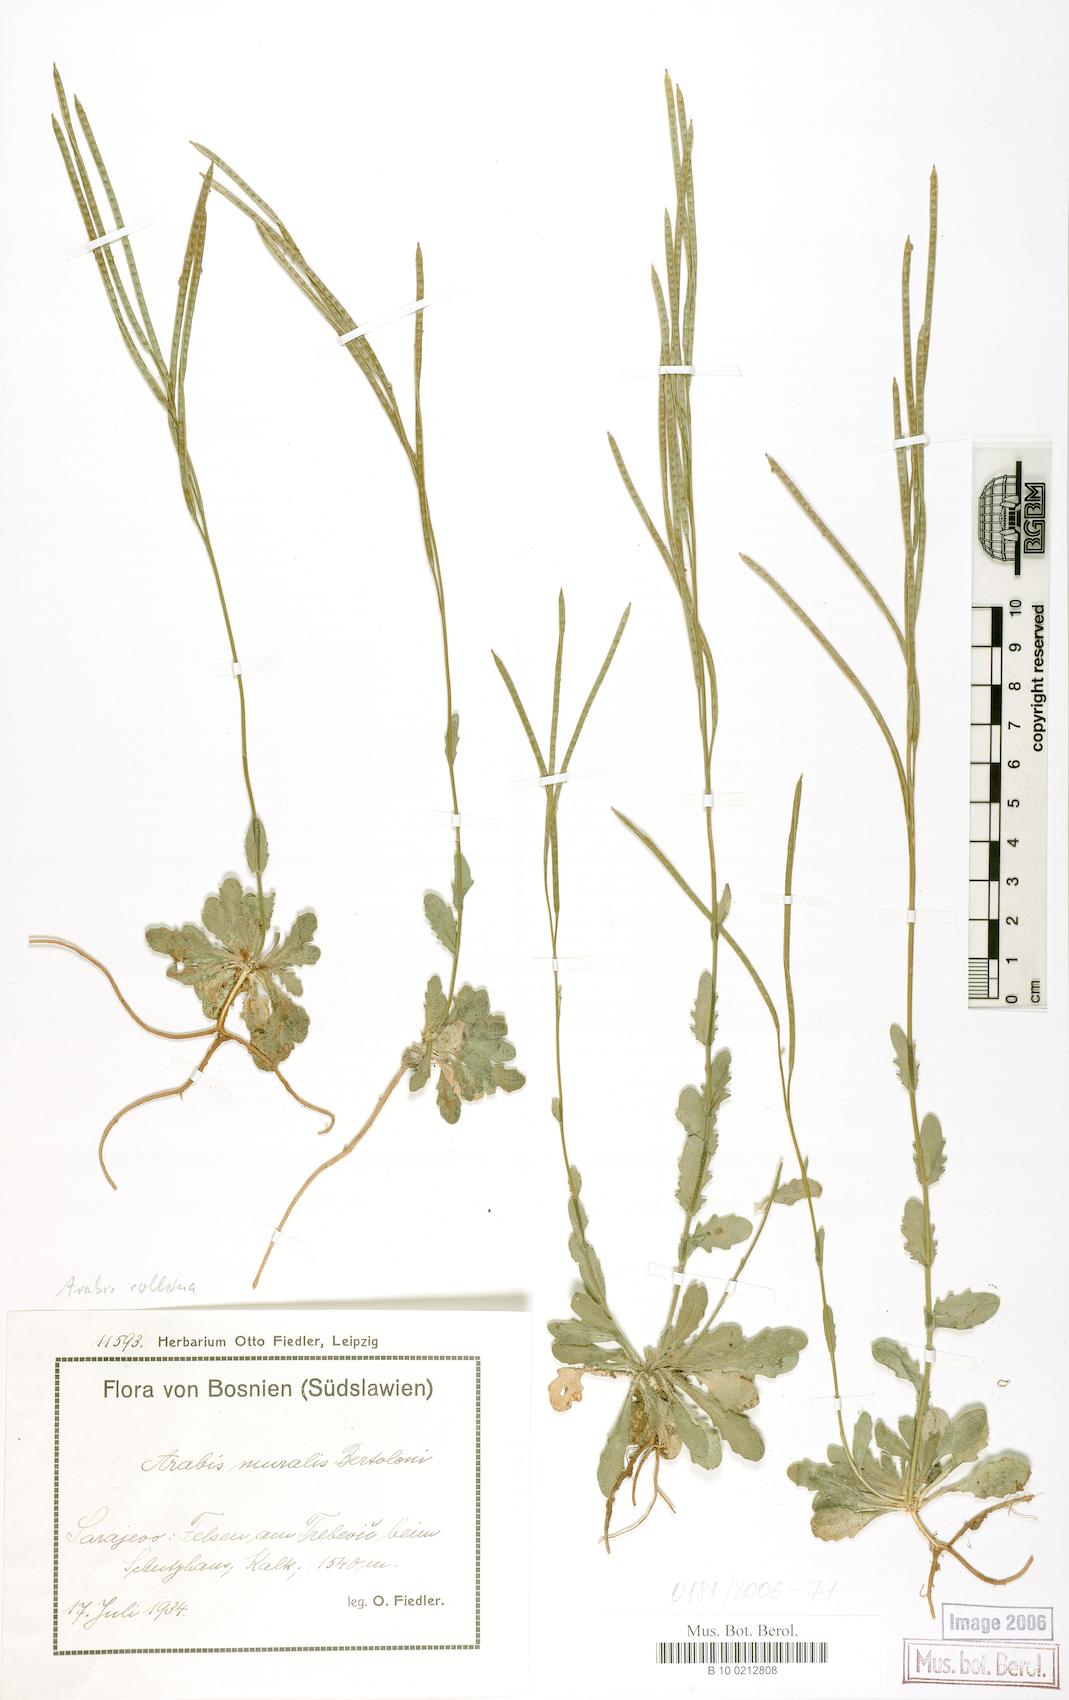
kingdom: Plantae
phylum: Tracheophyta
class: Magnoliopsida
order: Brassicales
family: Brassicaceae
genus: Arabis
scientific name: Arabis collina
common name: Rosy cress
